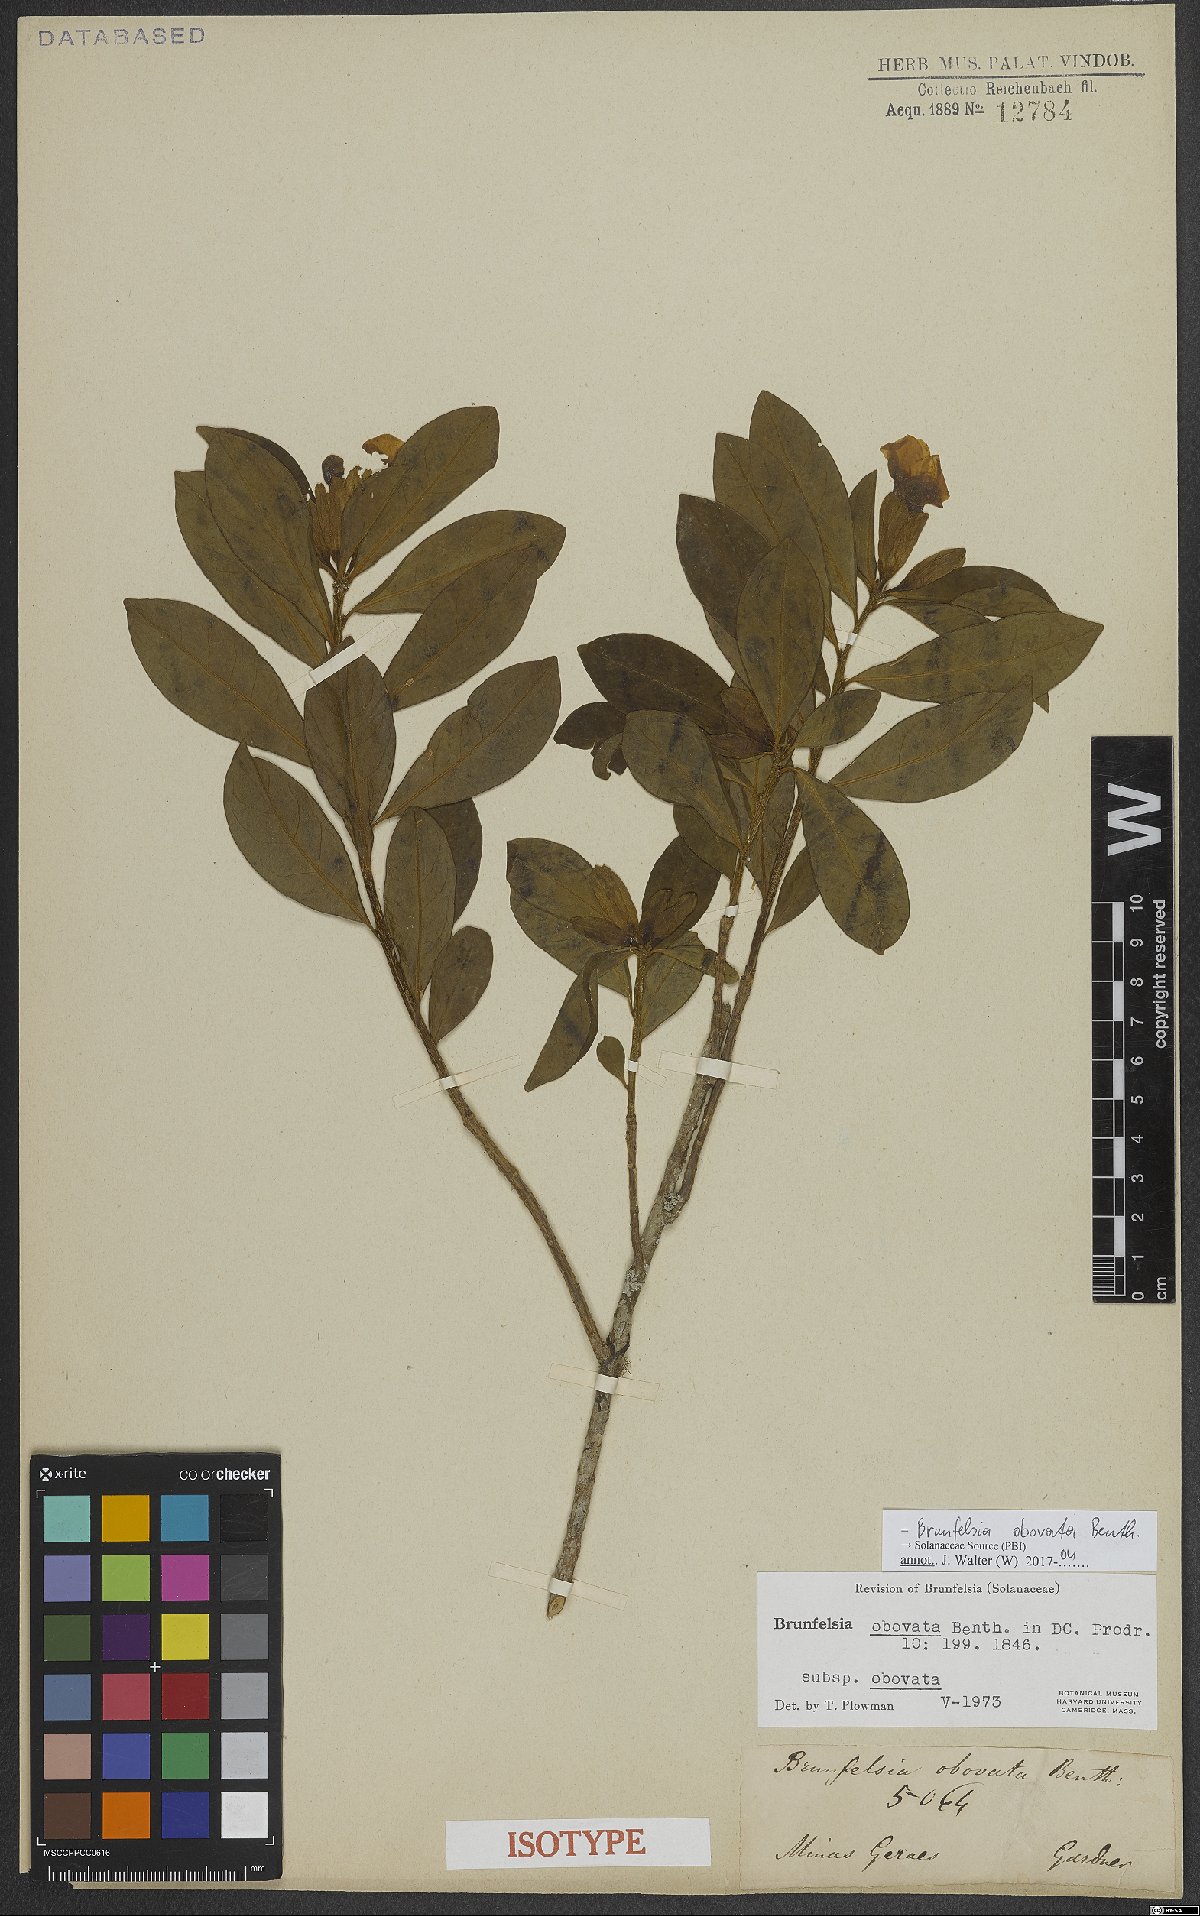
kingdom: Plantae
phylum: Tracheophyta
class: Magnoliopsida
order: Solanales
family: Solanaceae
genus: Brunfelsia
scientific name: Brunfelsia obovata
